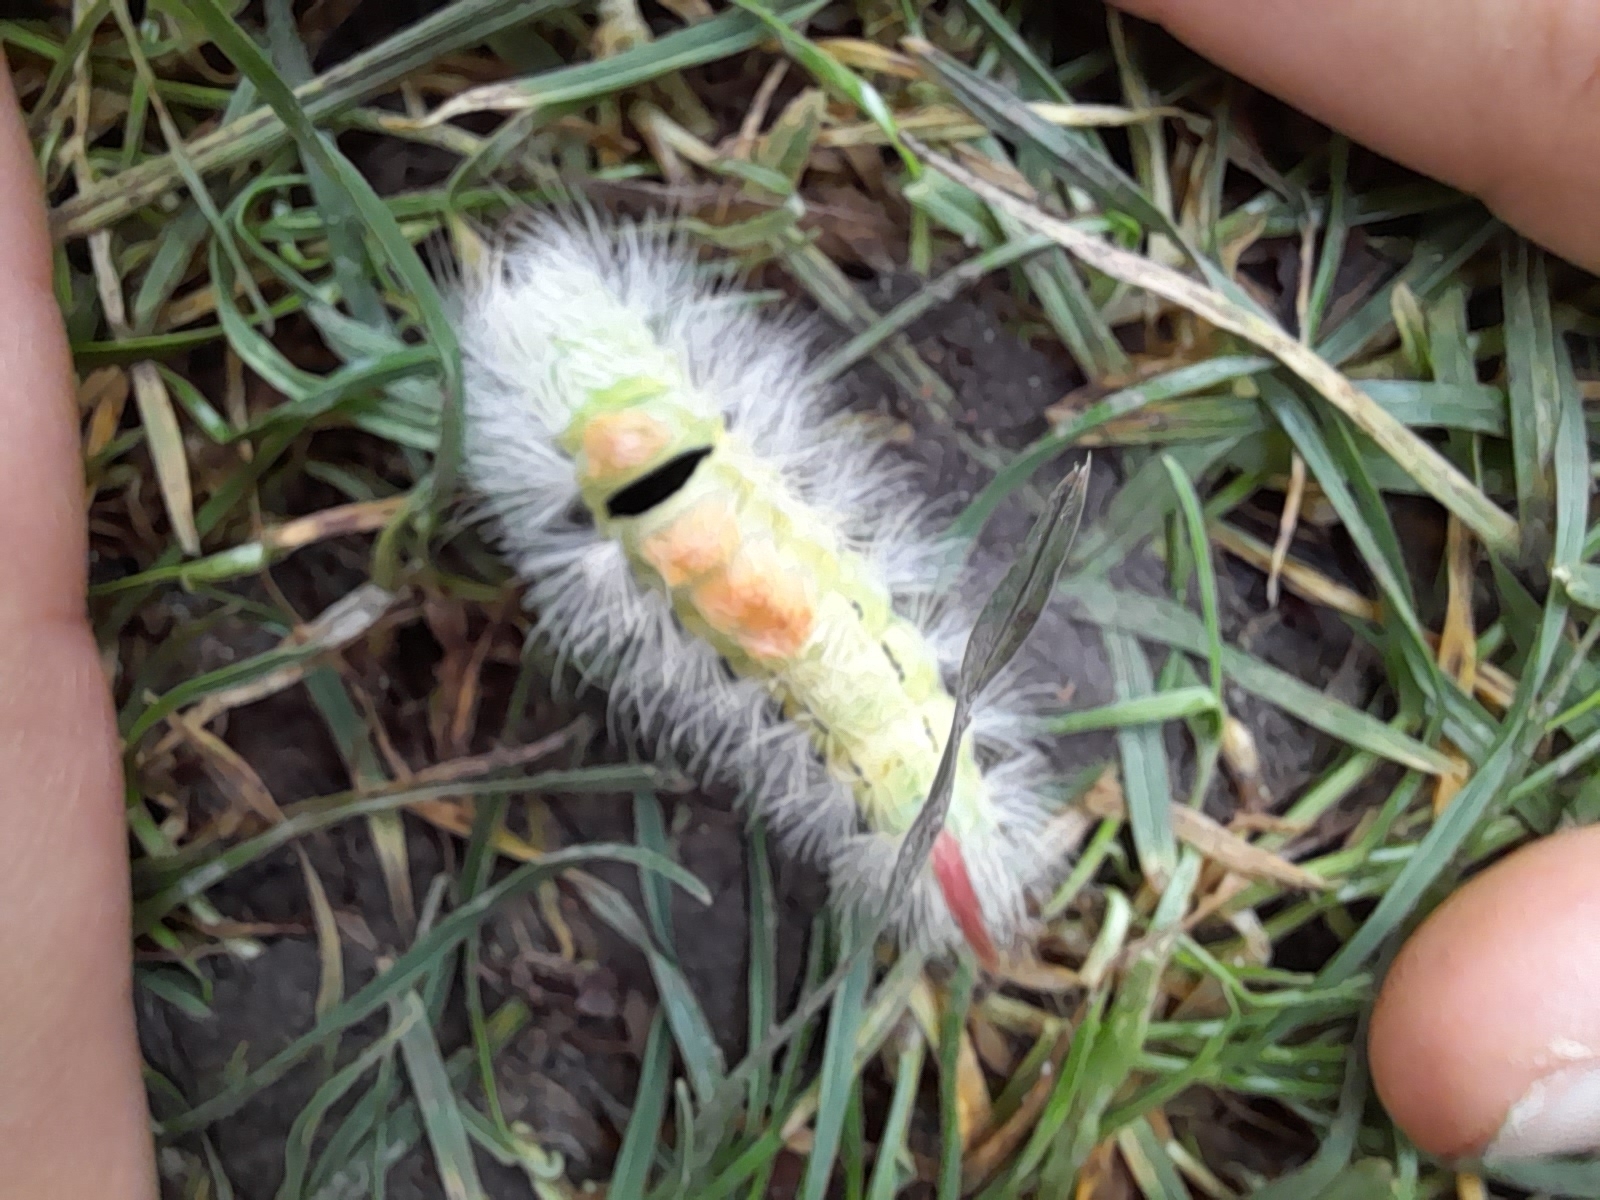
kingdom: Animalia
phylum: Arthropoda
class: Insecta
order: Lepidoptera
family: Erebidae
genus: Calliteara
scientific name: Calliteara pudibunda
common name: Bøgenonne
